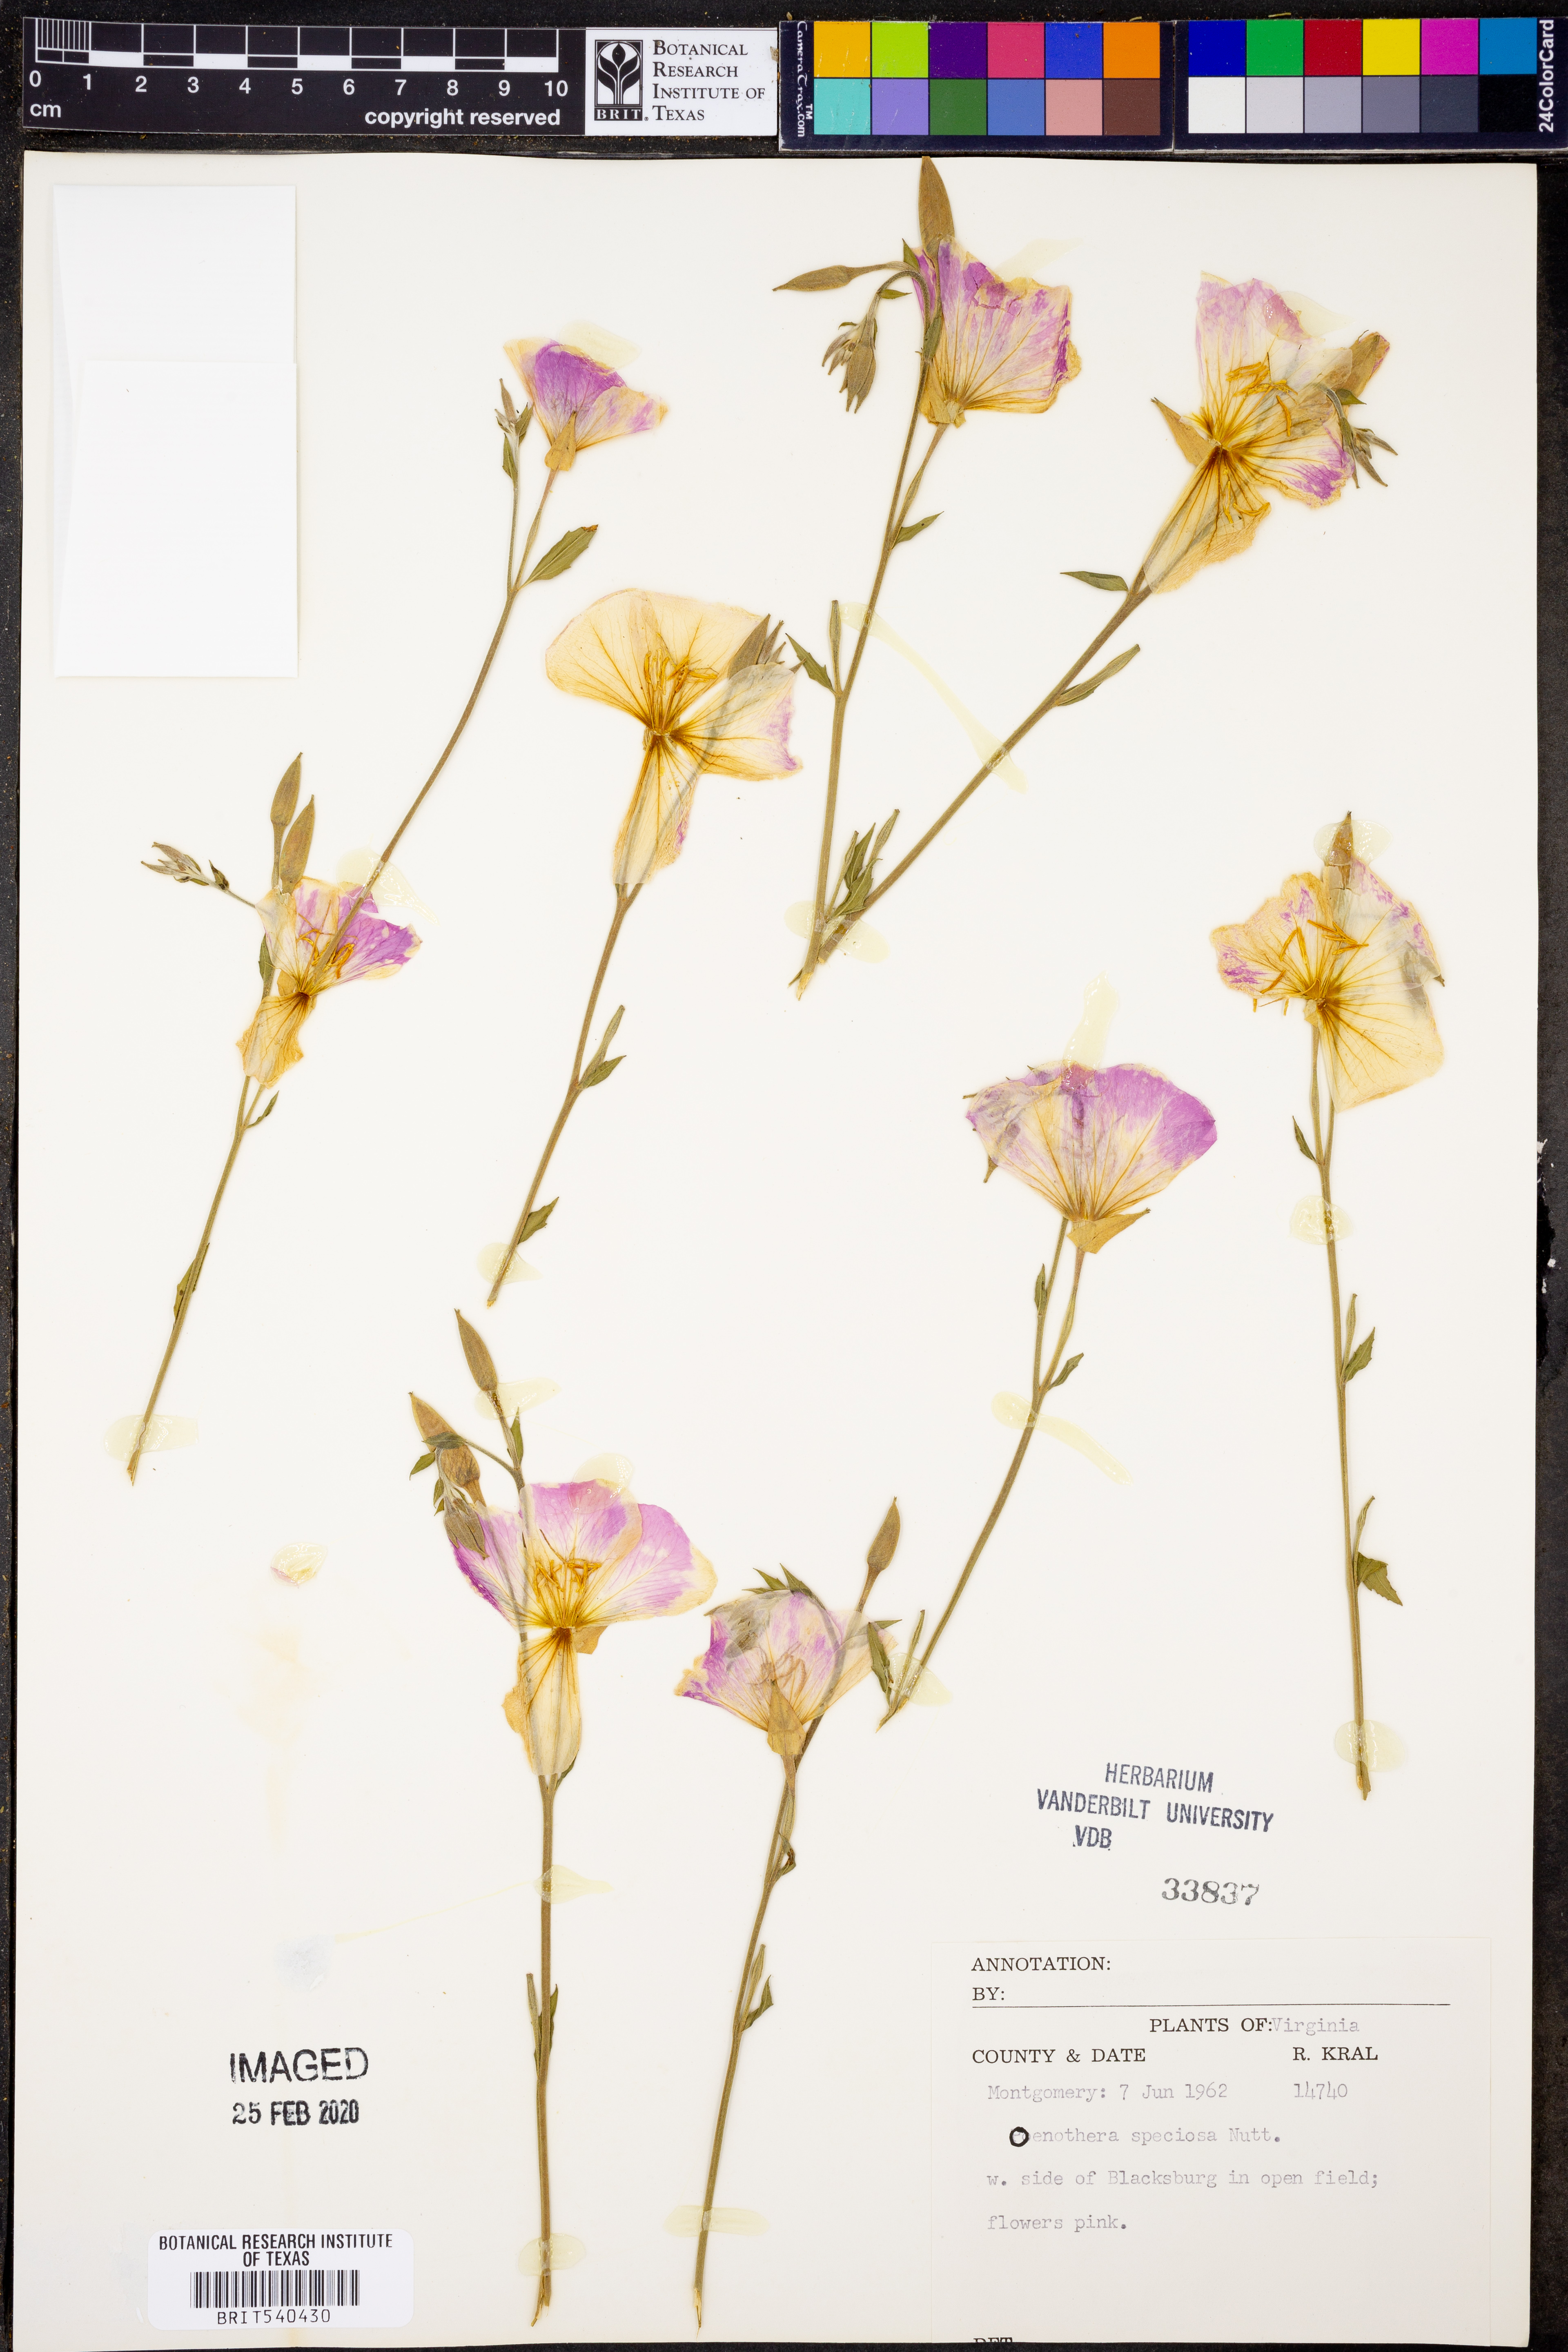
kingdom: Plantae
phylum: Tracheophyta
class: Magnoliopsida
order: Myrtales
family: Onagraceae
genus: Oenothera
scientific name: Oenothera speciosa
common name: White evening-primrose
